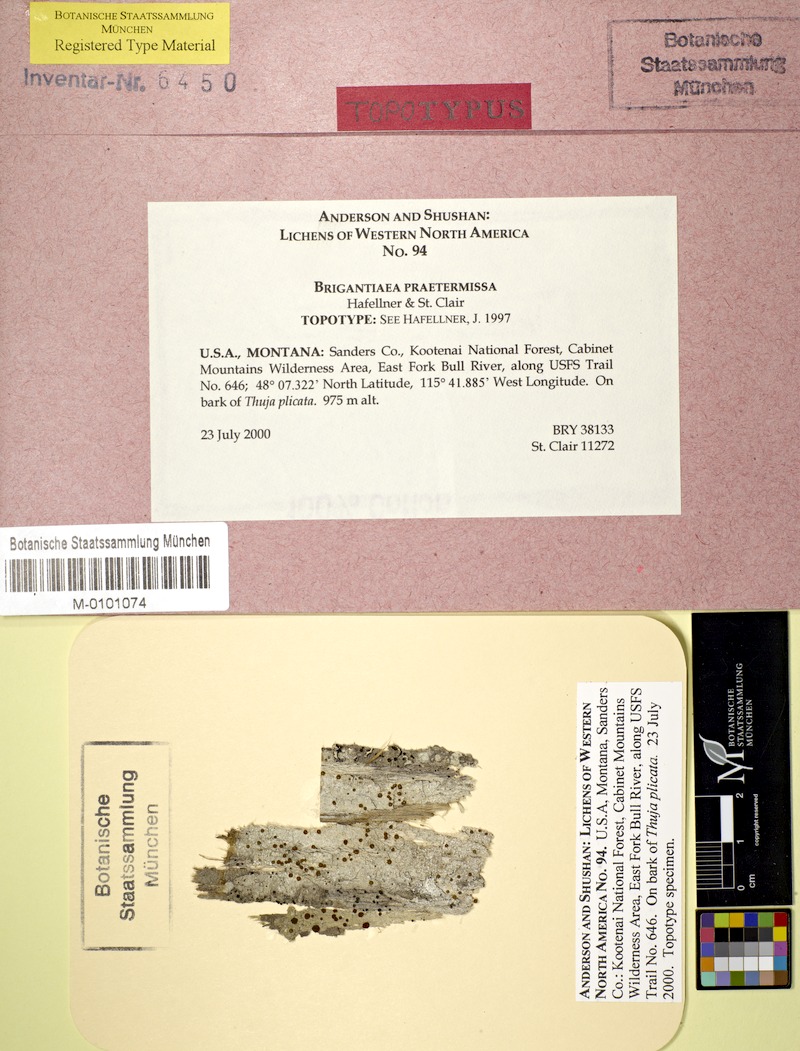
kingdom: Fungi
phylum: Ascomycota
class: Lecanoromycetes
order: Teloschistales
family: Brigantiaeaceae
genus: Brigantiaea
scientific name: Brigantiaea praetermissa
